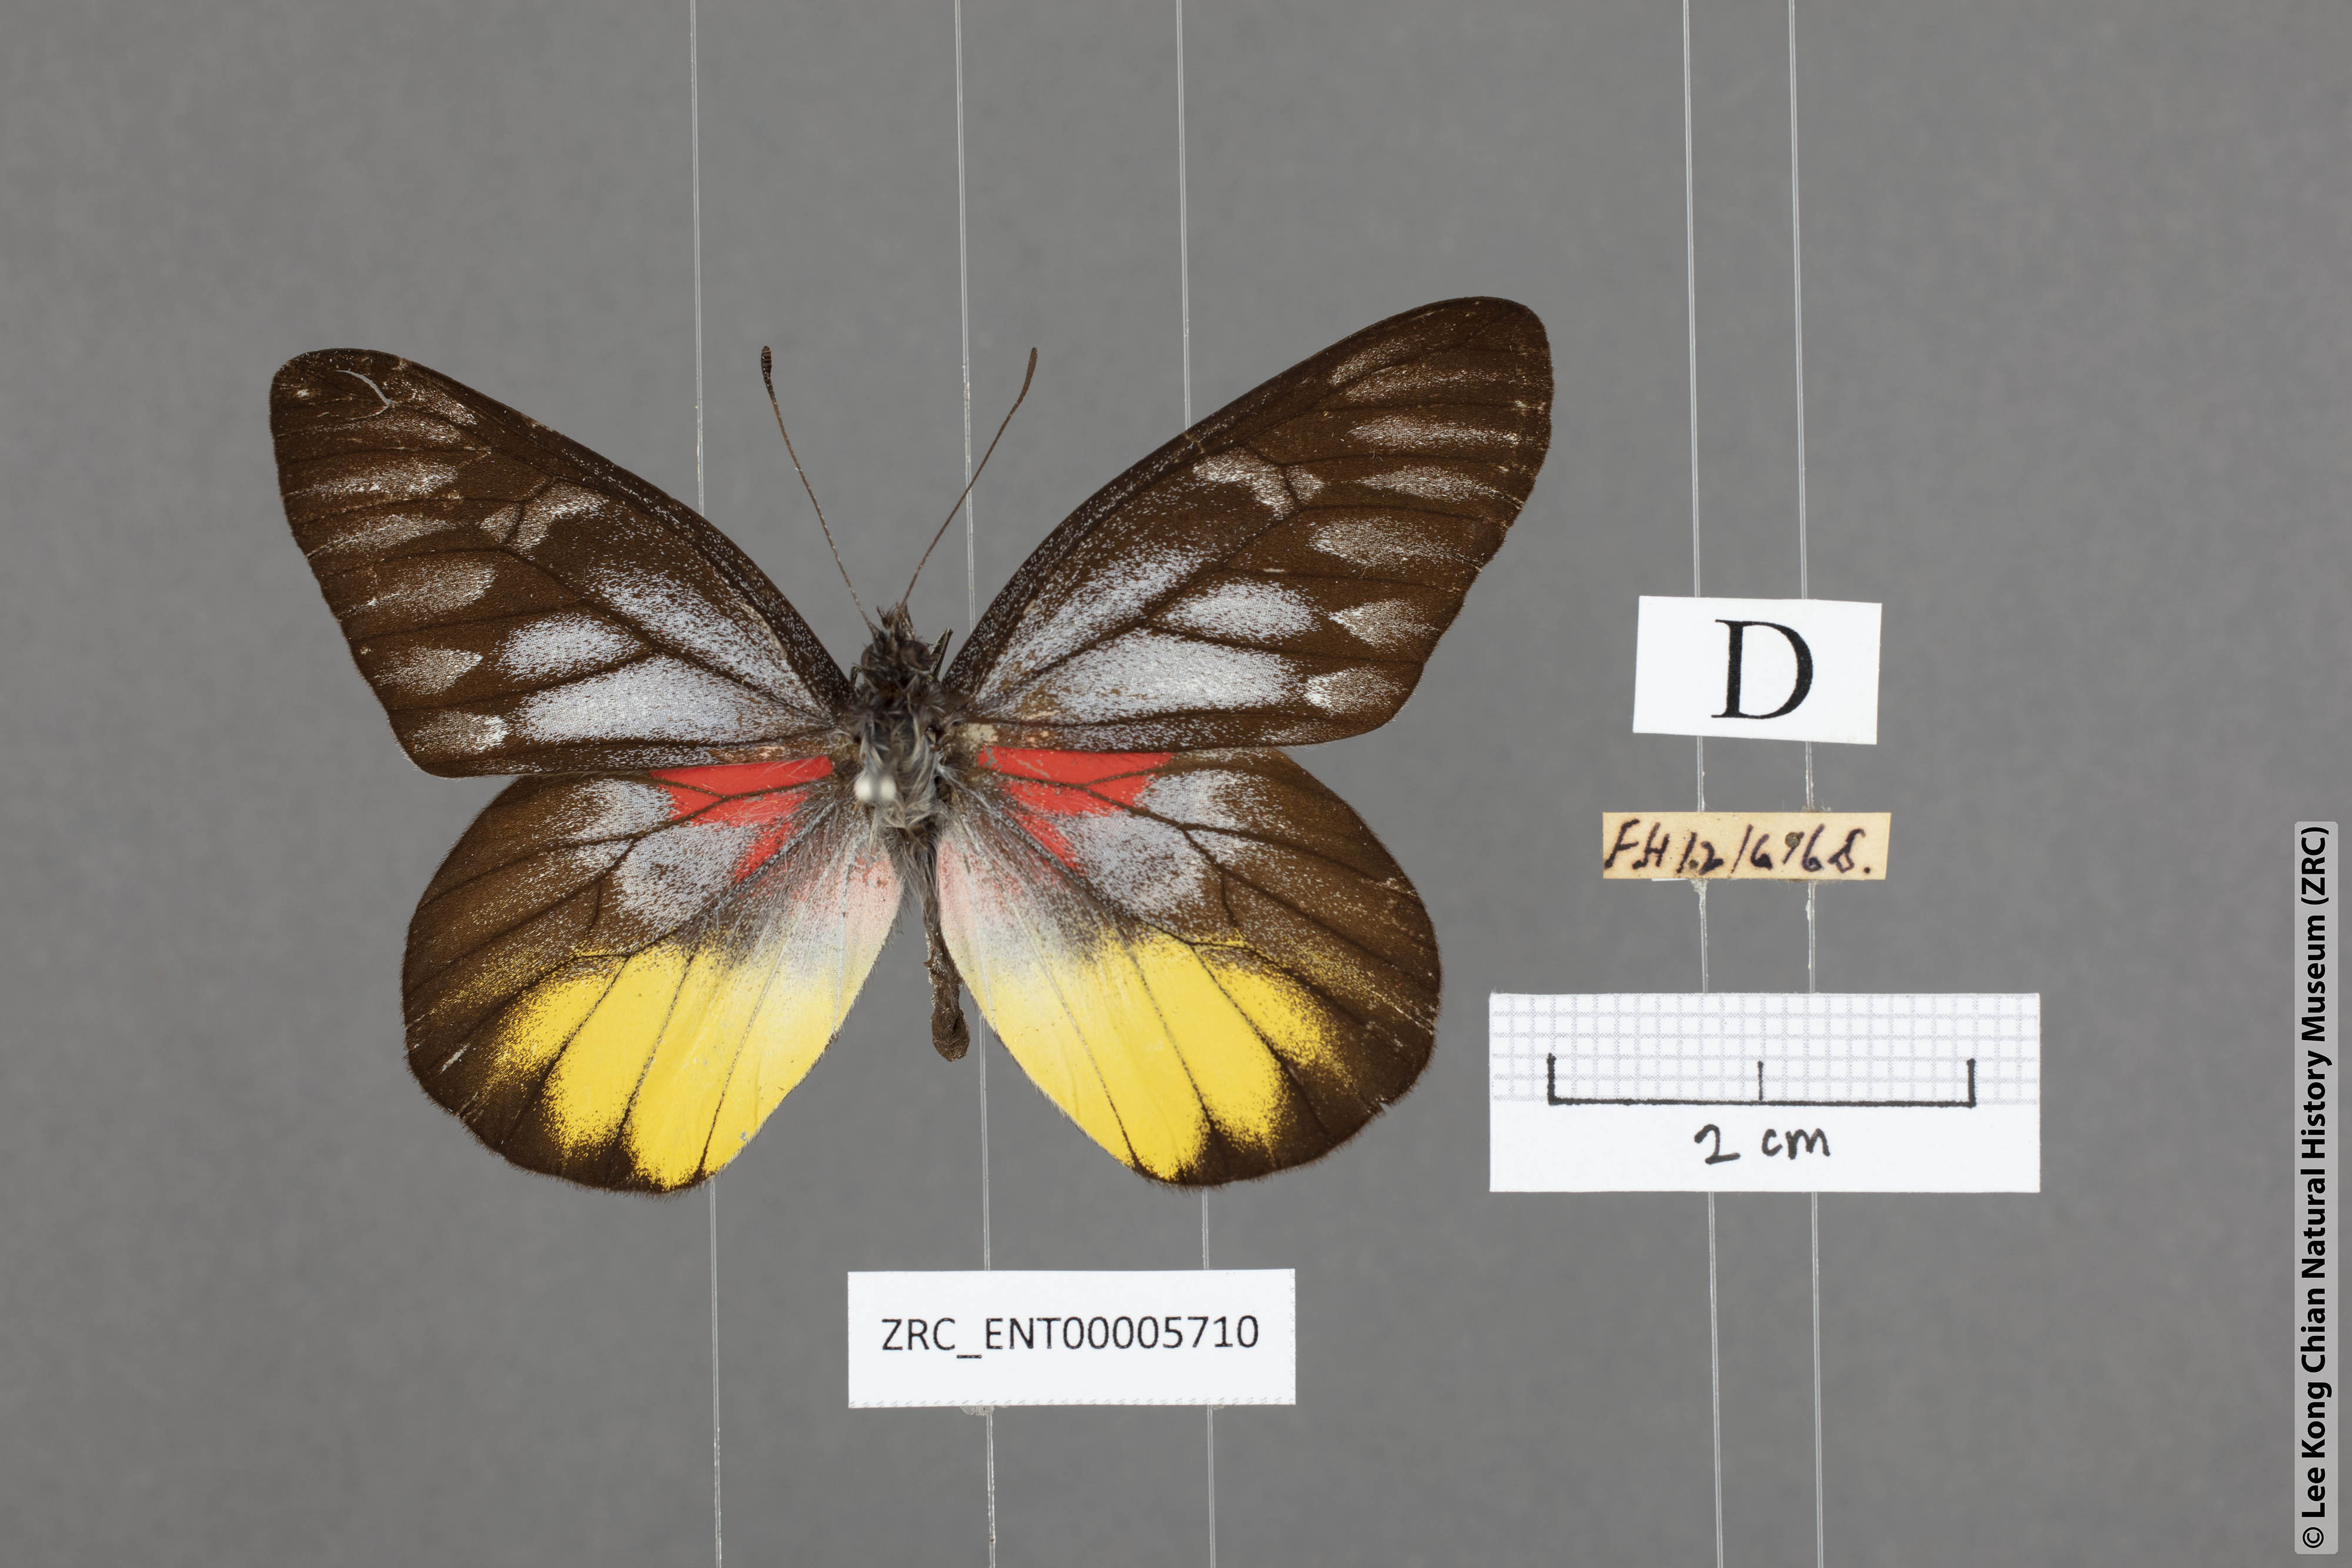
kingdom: Animalia
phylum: Arthropoda
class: Insecta
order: Lepidoptera
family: Pieridae
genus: Delias
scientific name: Delias ninus
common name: Malayan jezebel
